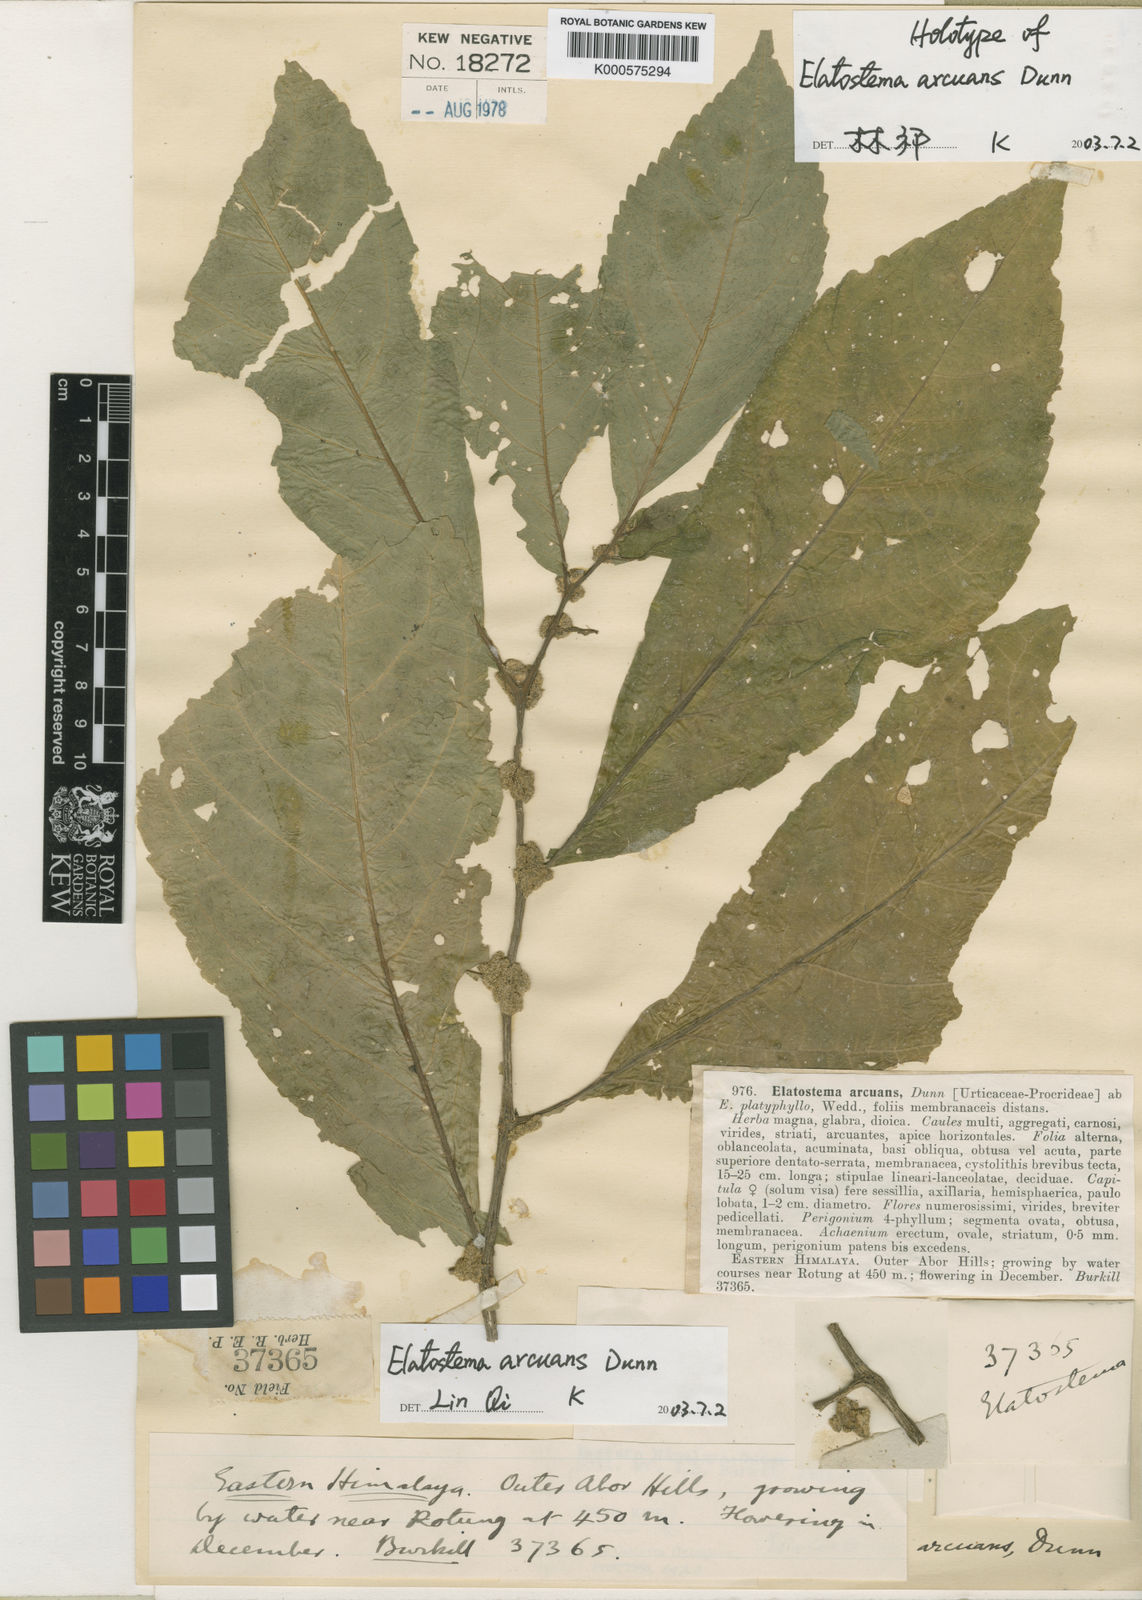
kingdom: Plantae
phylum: Tracheophyta
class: Magnoliopsida
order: Rosales
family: Urticaceae
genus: Elatostema
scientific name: Elatostema arcuans
